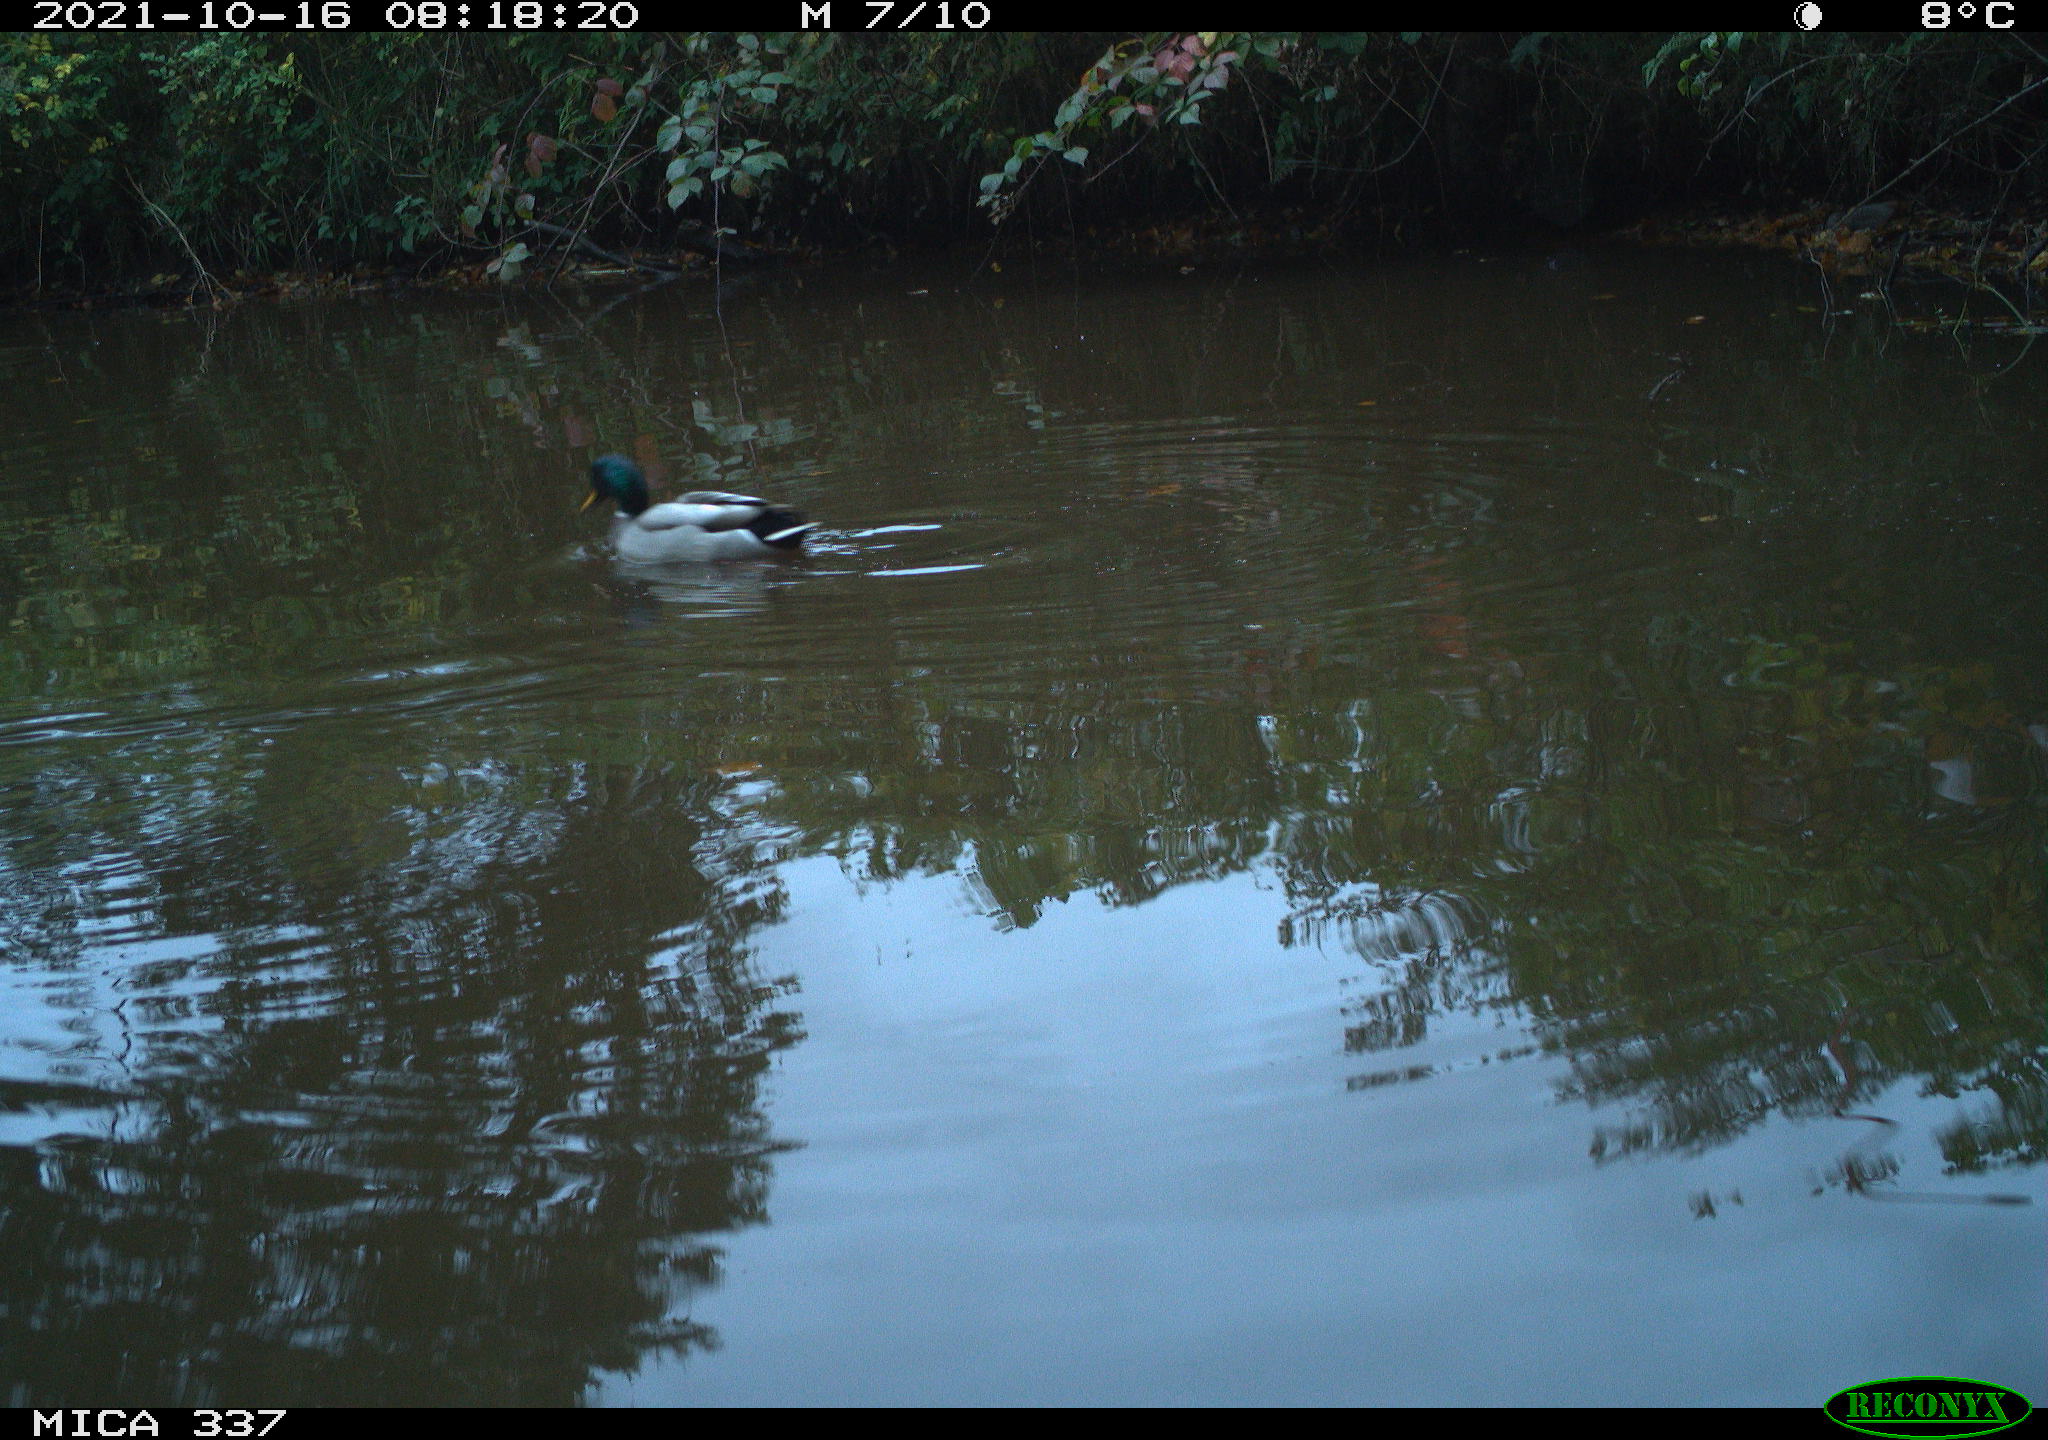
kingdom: Animalia
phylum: Chordata
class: Aves
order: Anseriformes
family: Anatidae
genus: Anas
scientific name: Anas platyrhynchos
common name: Mallard
